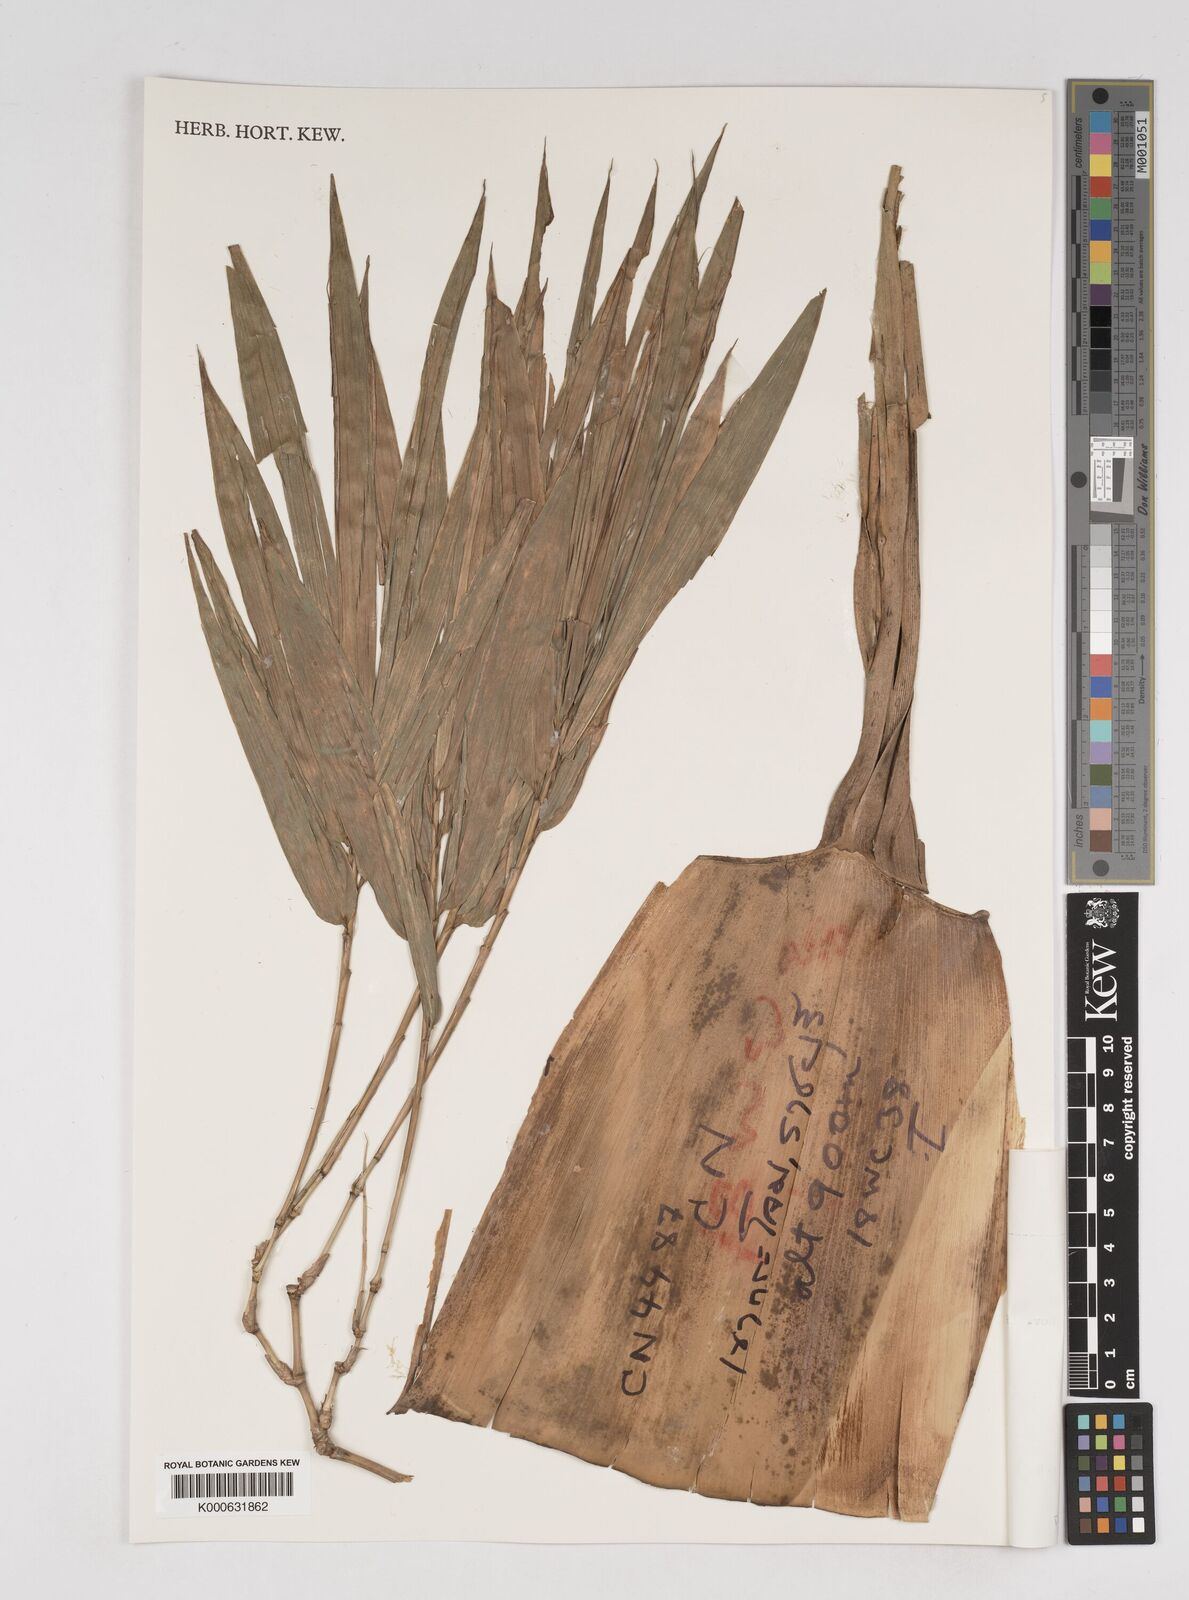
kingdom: Plantae
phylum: Tracheophyta
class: Liliopsida
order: Poales
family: Poaceae
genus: Gigantochloa
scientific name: Gigantochloa
